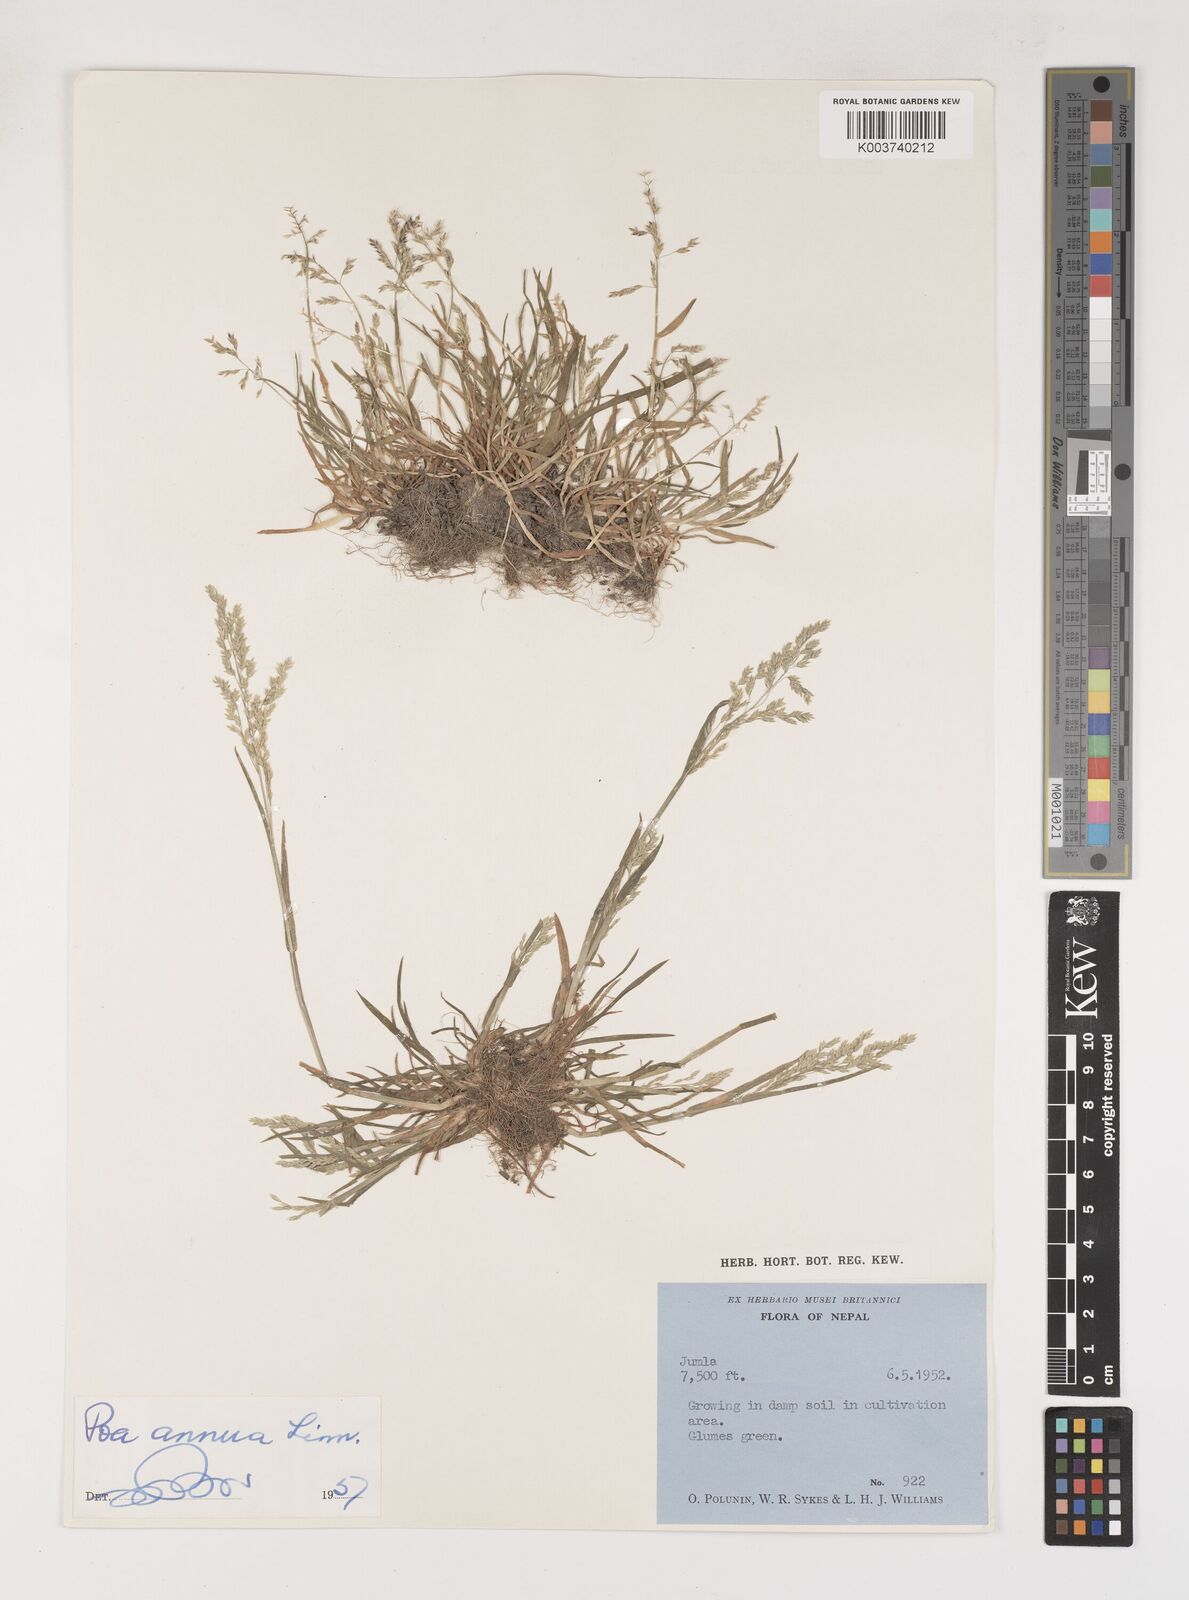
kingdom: Plantae
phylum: Tracheophyta
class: Liliopsida
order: Poales
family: Poaceae
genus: Poa
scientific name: Poa annua
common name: Annual bluegrass
